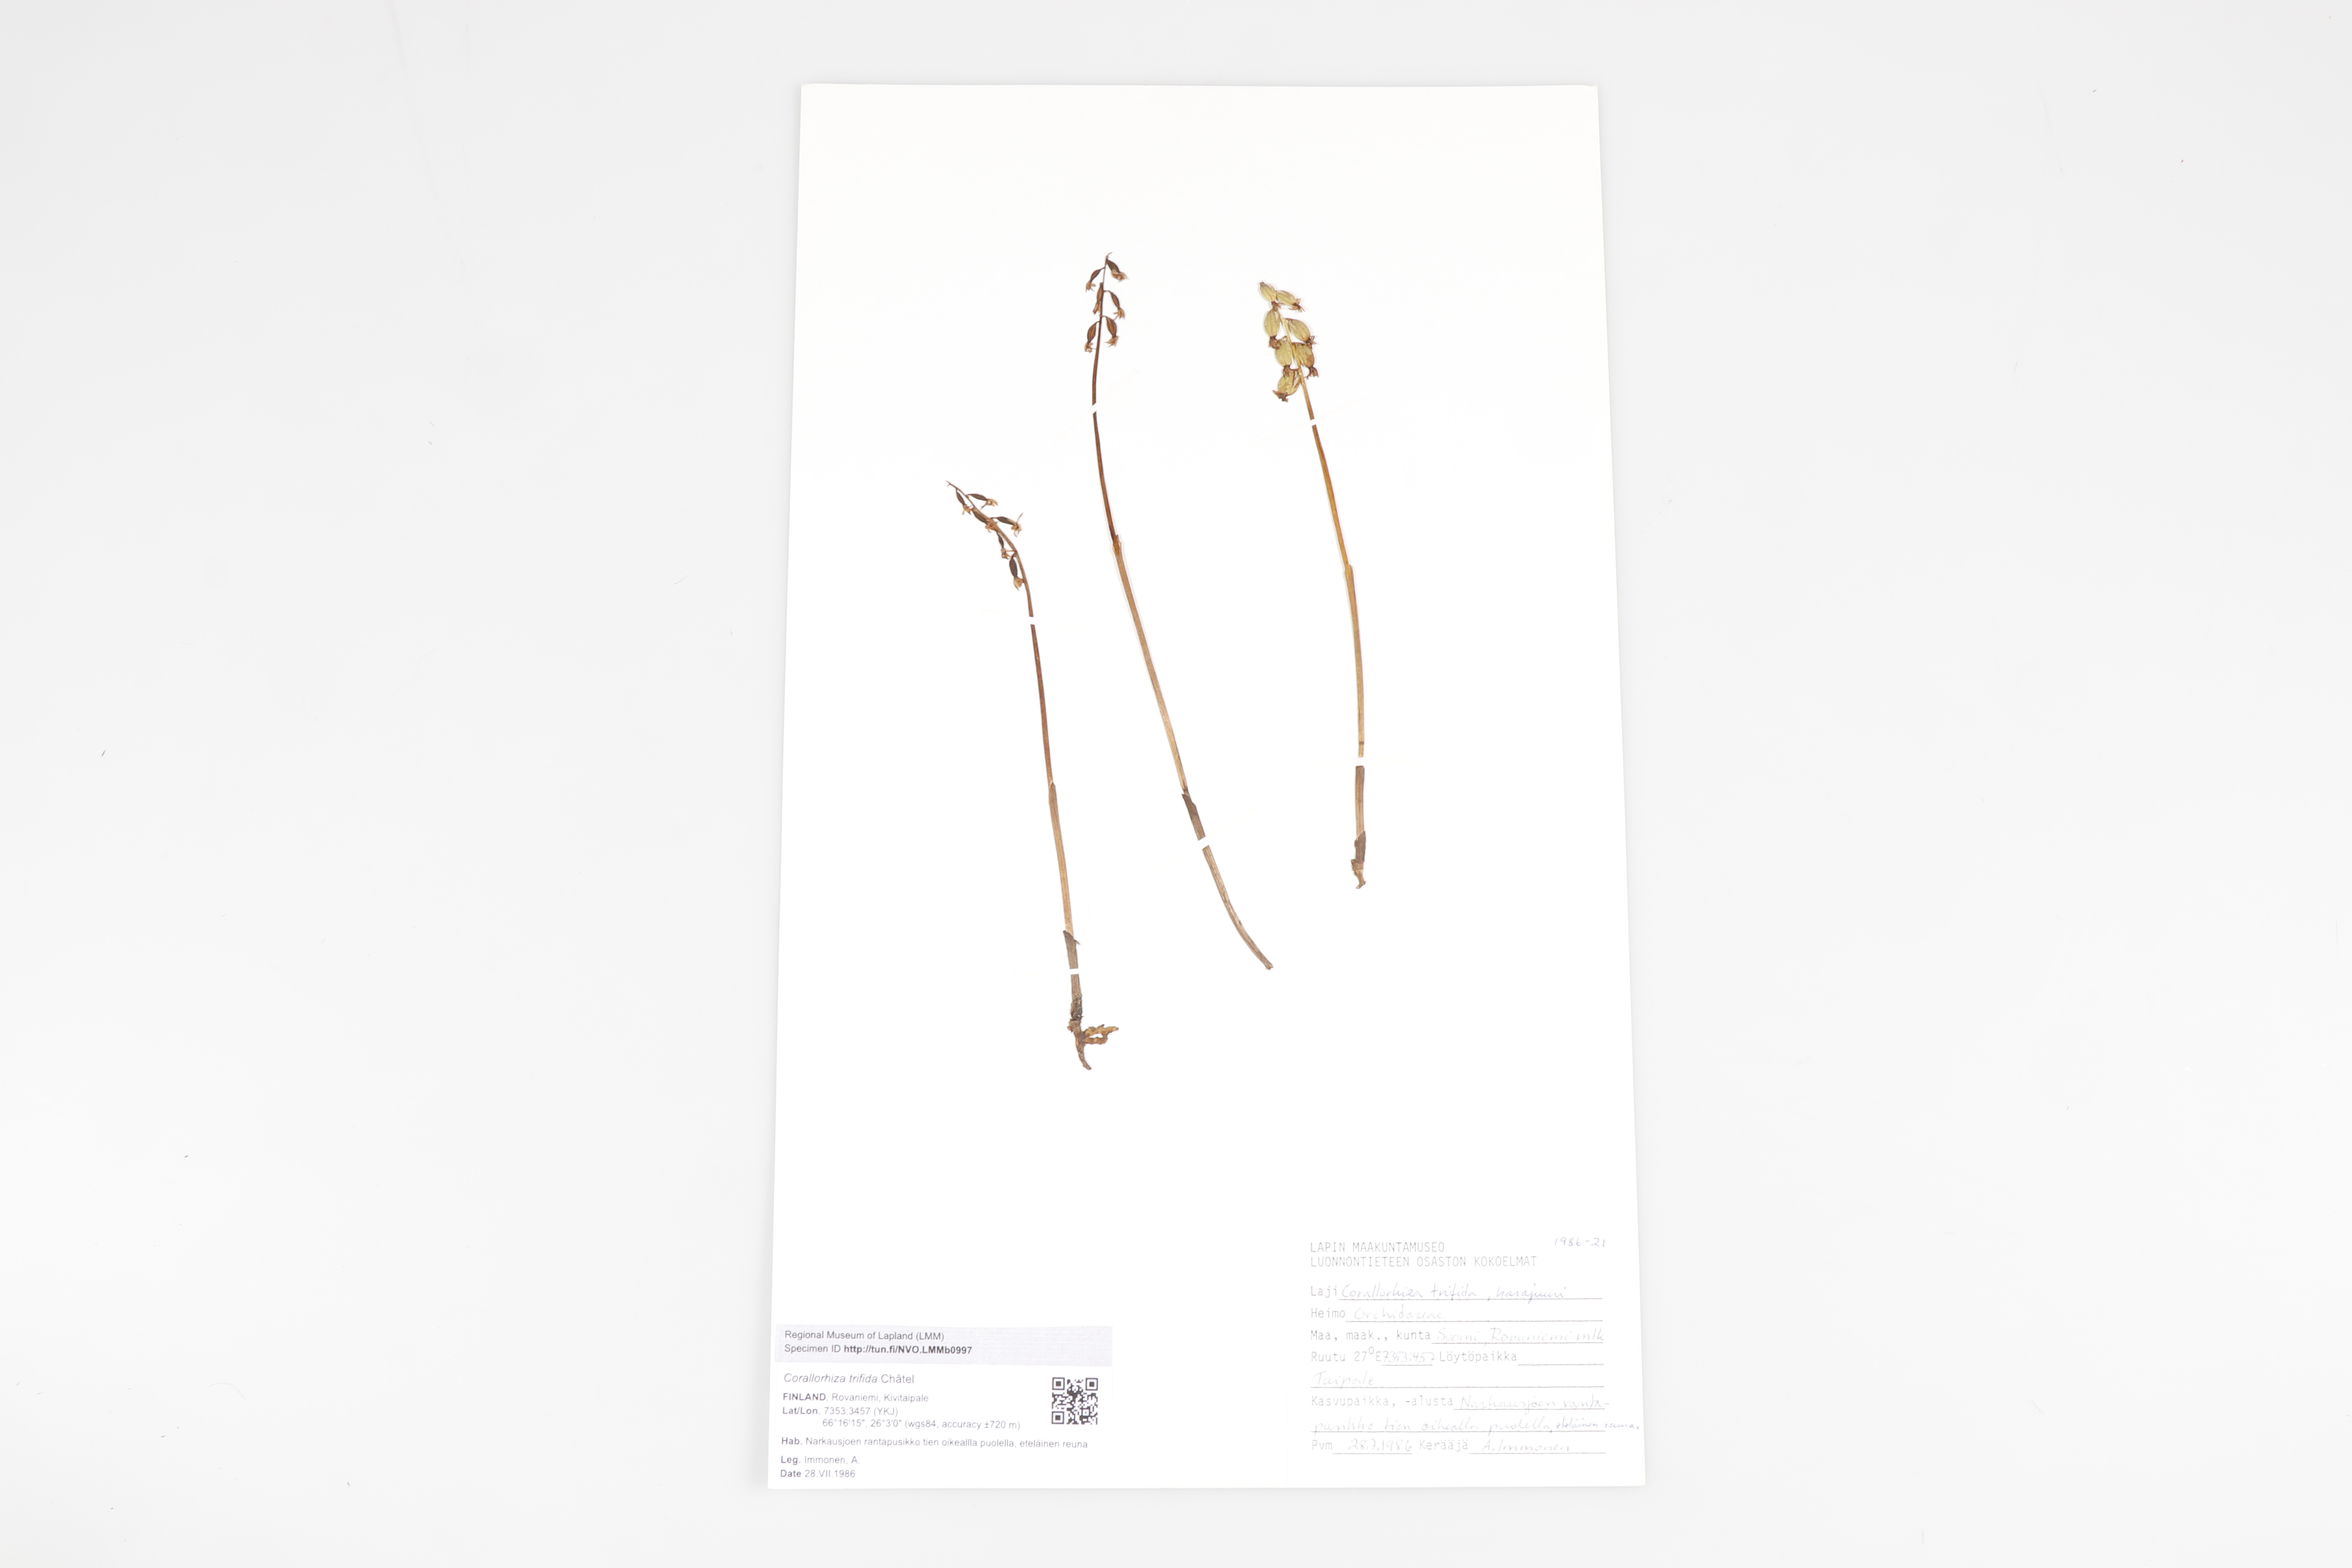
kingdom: Plantae
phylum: Tracheophyta
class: Liliopsida
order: Asparagales
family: Orchidaceae
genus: Corallorhiza
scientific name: Corallorhiza trifida
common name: Yellow coralroot
